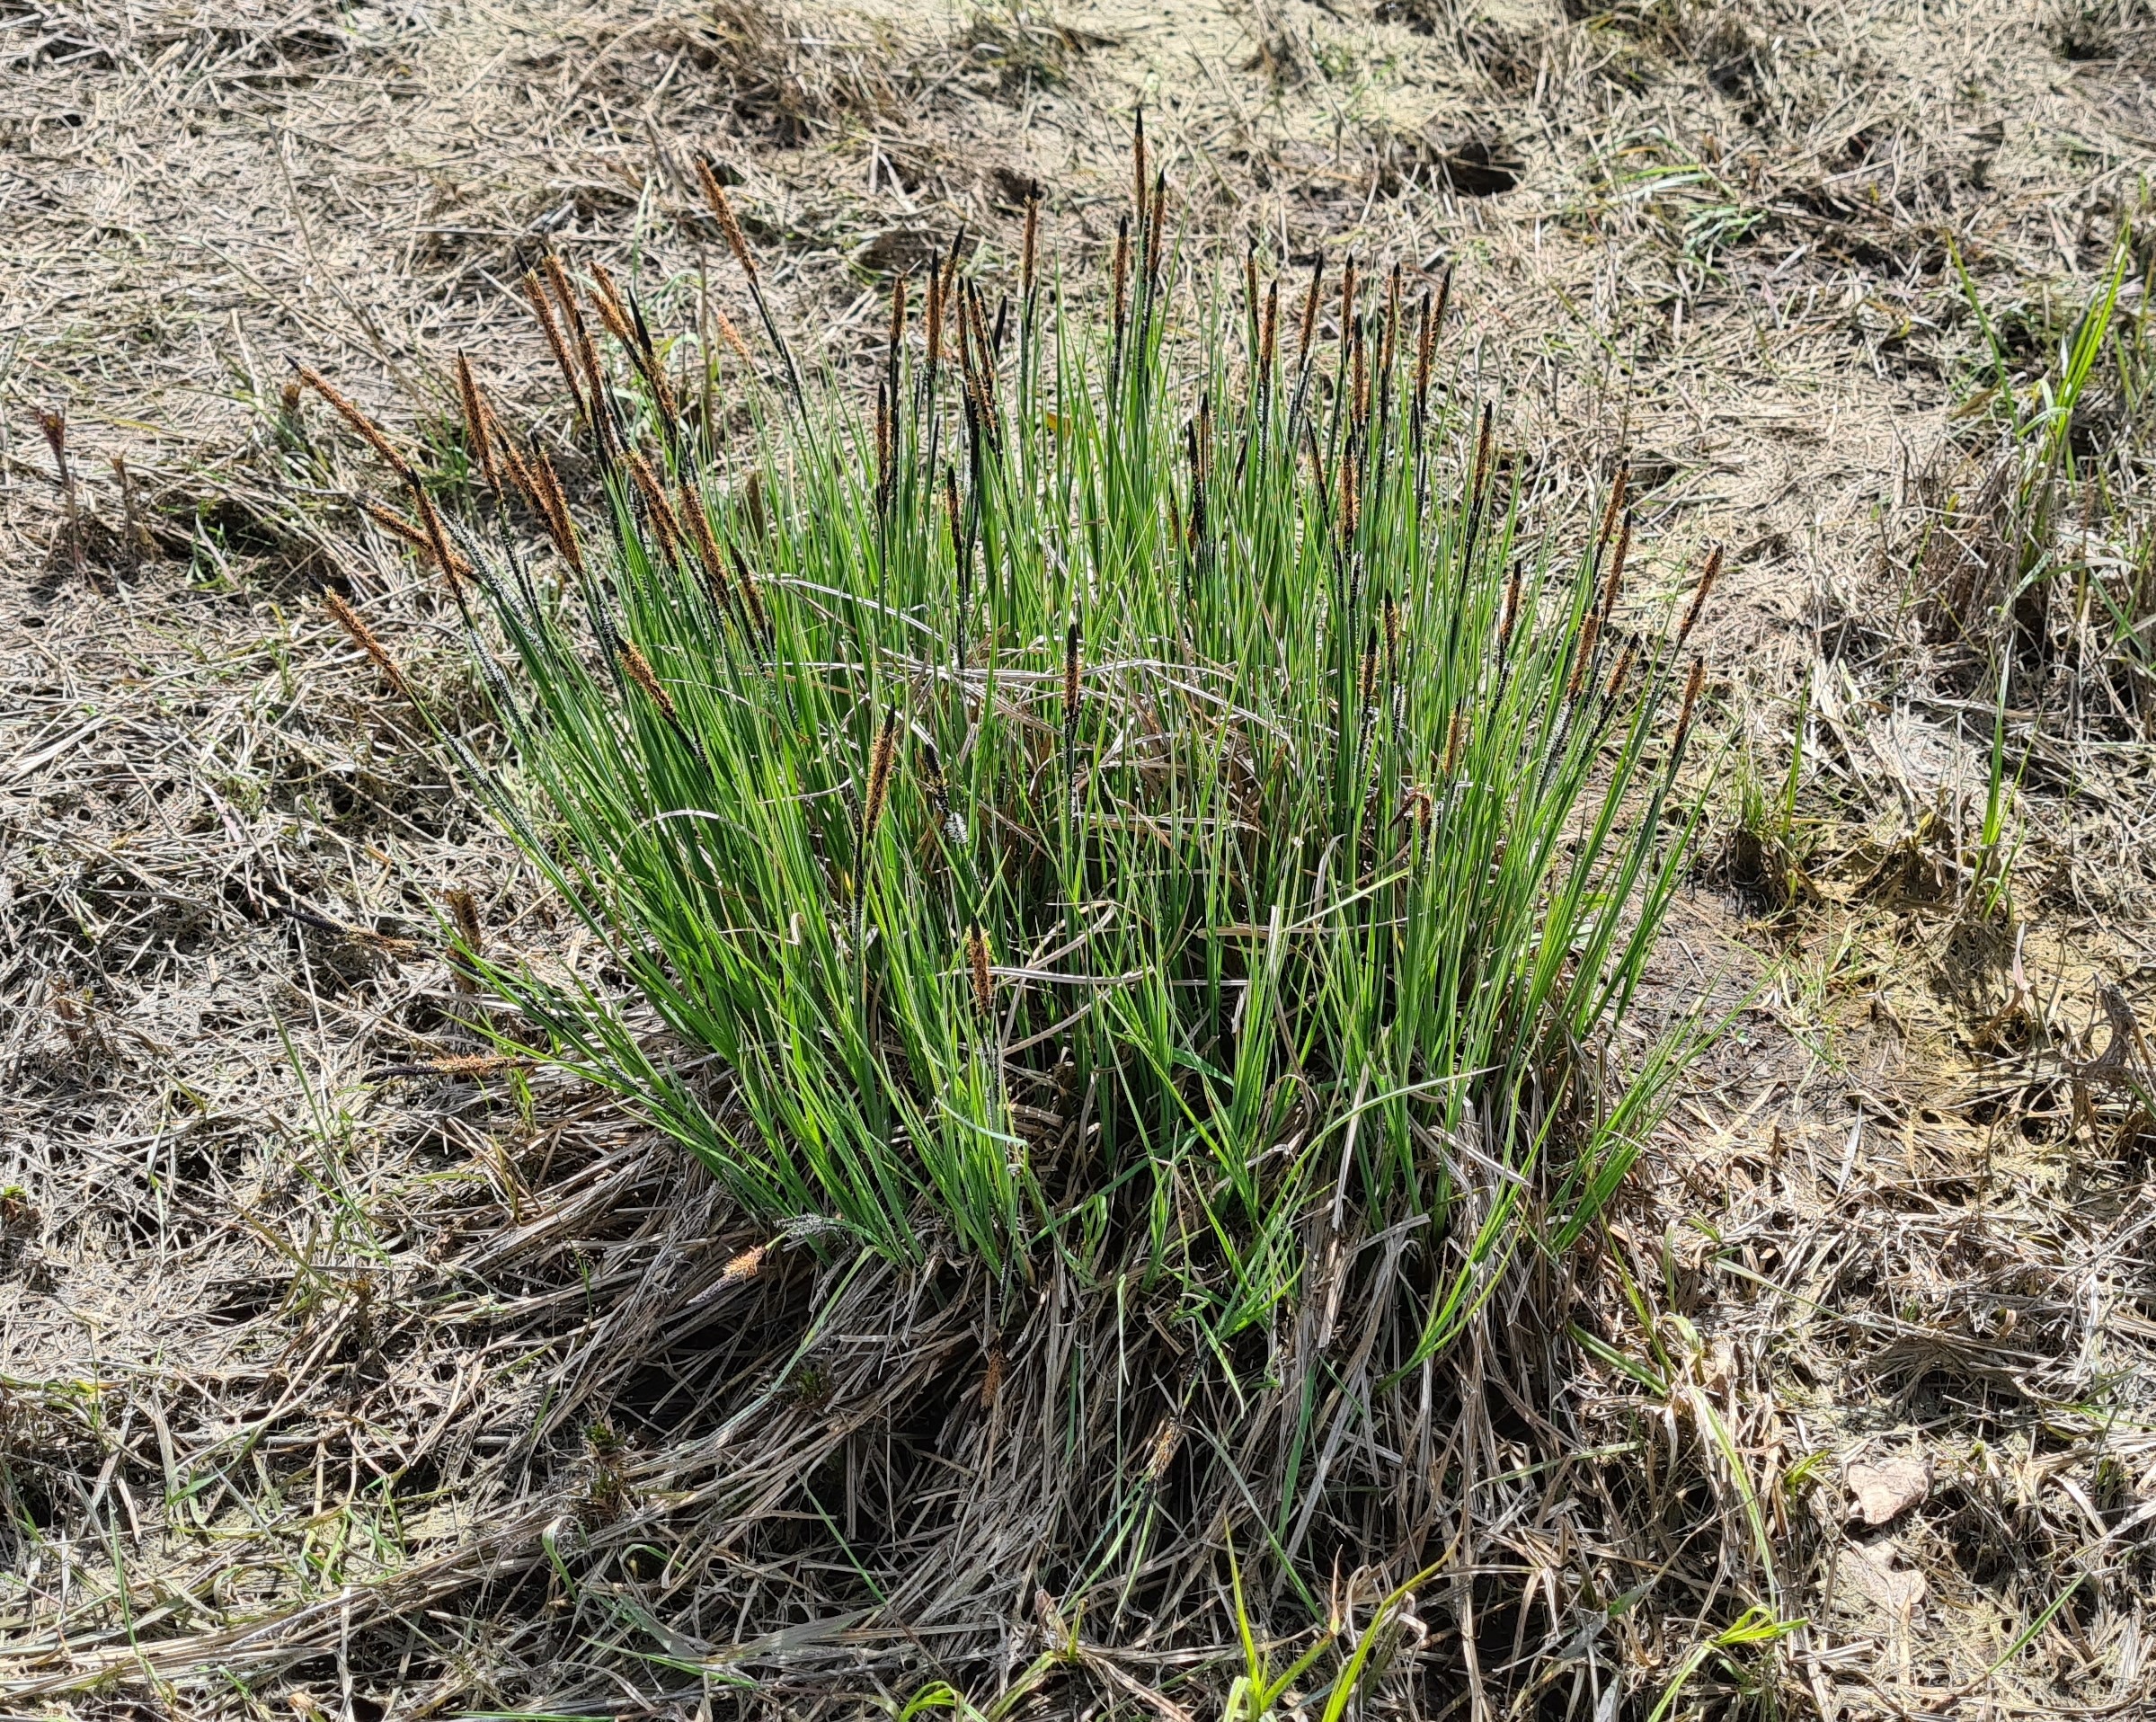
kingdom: Plantae
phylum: Tracheophyta
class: Liliopsida
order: Poales
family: Cyperaceae
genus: Carex
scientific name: Carex elata
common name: Stiv star
